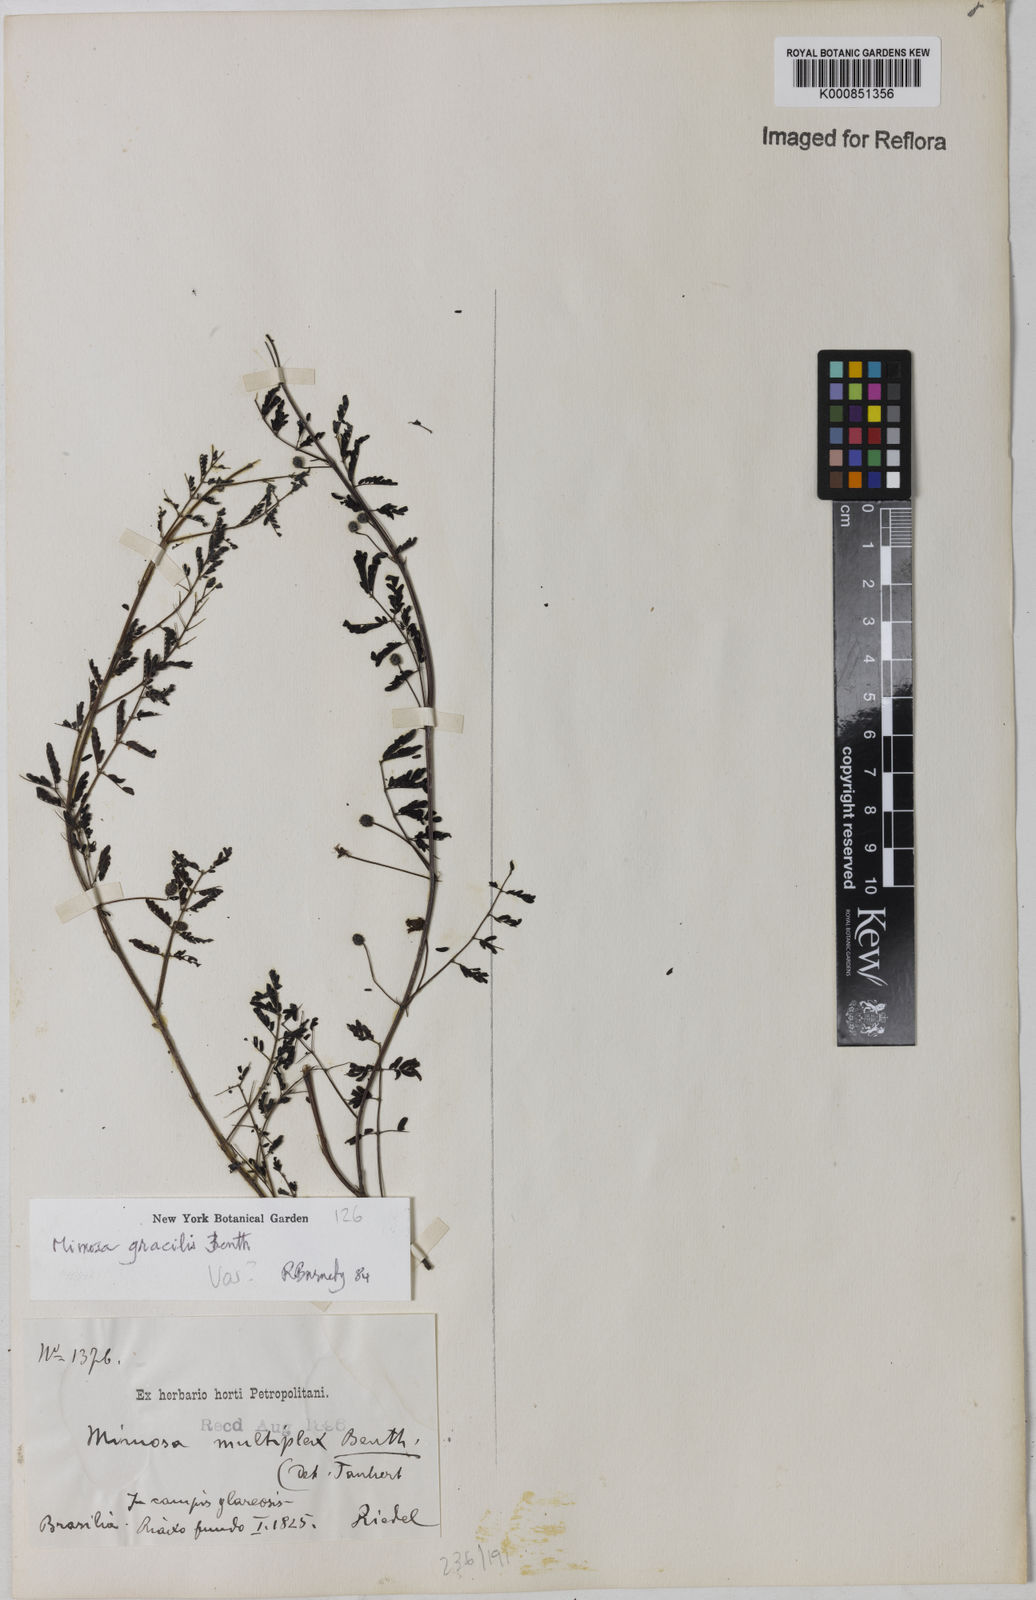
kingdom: Plantae
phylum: Tracheophyta
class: Magnoliopsida
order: Fabales
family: Fabaceae
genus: Mimosa
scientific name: Mimosa gracilis
